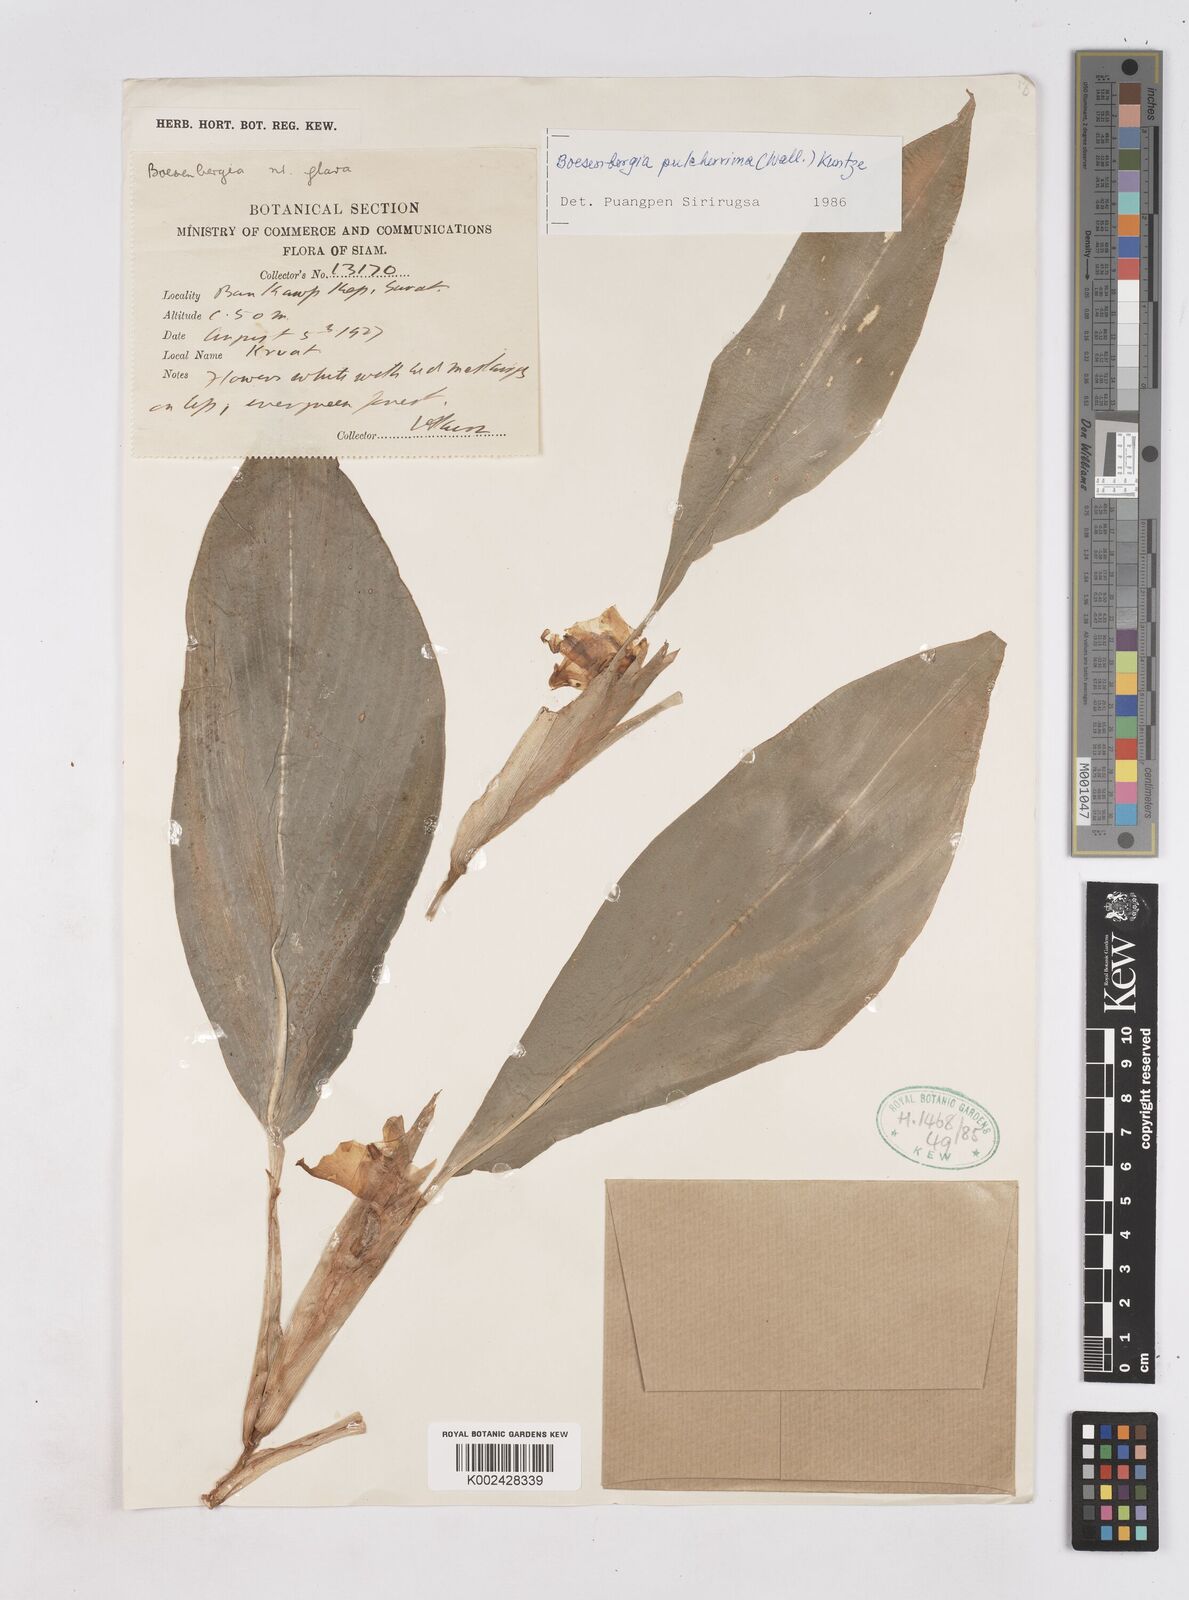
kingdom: Plantae
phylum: Tracheophyta
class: Liliopsida
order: Zingiberales
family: Zingiberaceae
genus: Boesenbergia
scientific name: Boesenbergia pulcherrima
